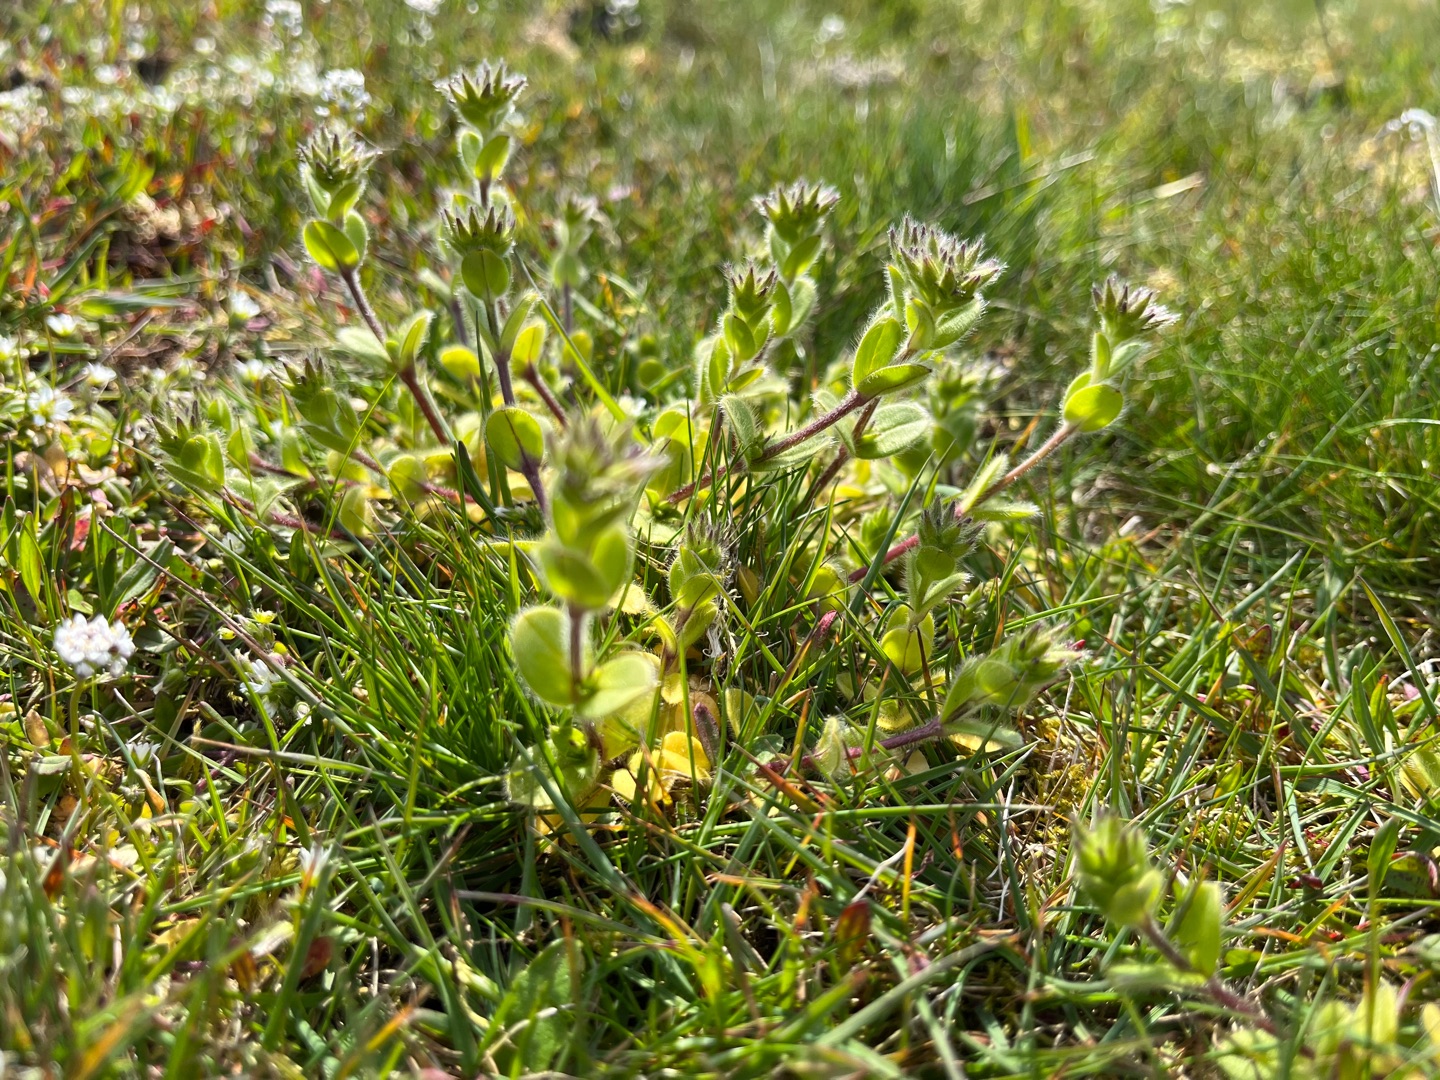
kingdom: Plantae
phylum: Tracheophyta
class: Magnoliopsida
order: Caryophyllales
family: Caryophyllaceae
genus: Cerastium
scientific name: Cerastium glomeratum
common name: Opret hønsetarm
